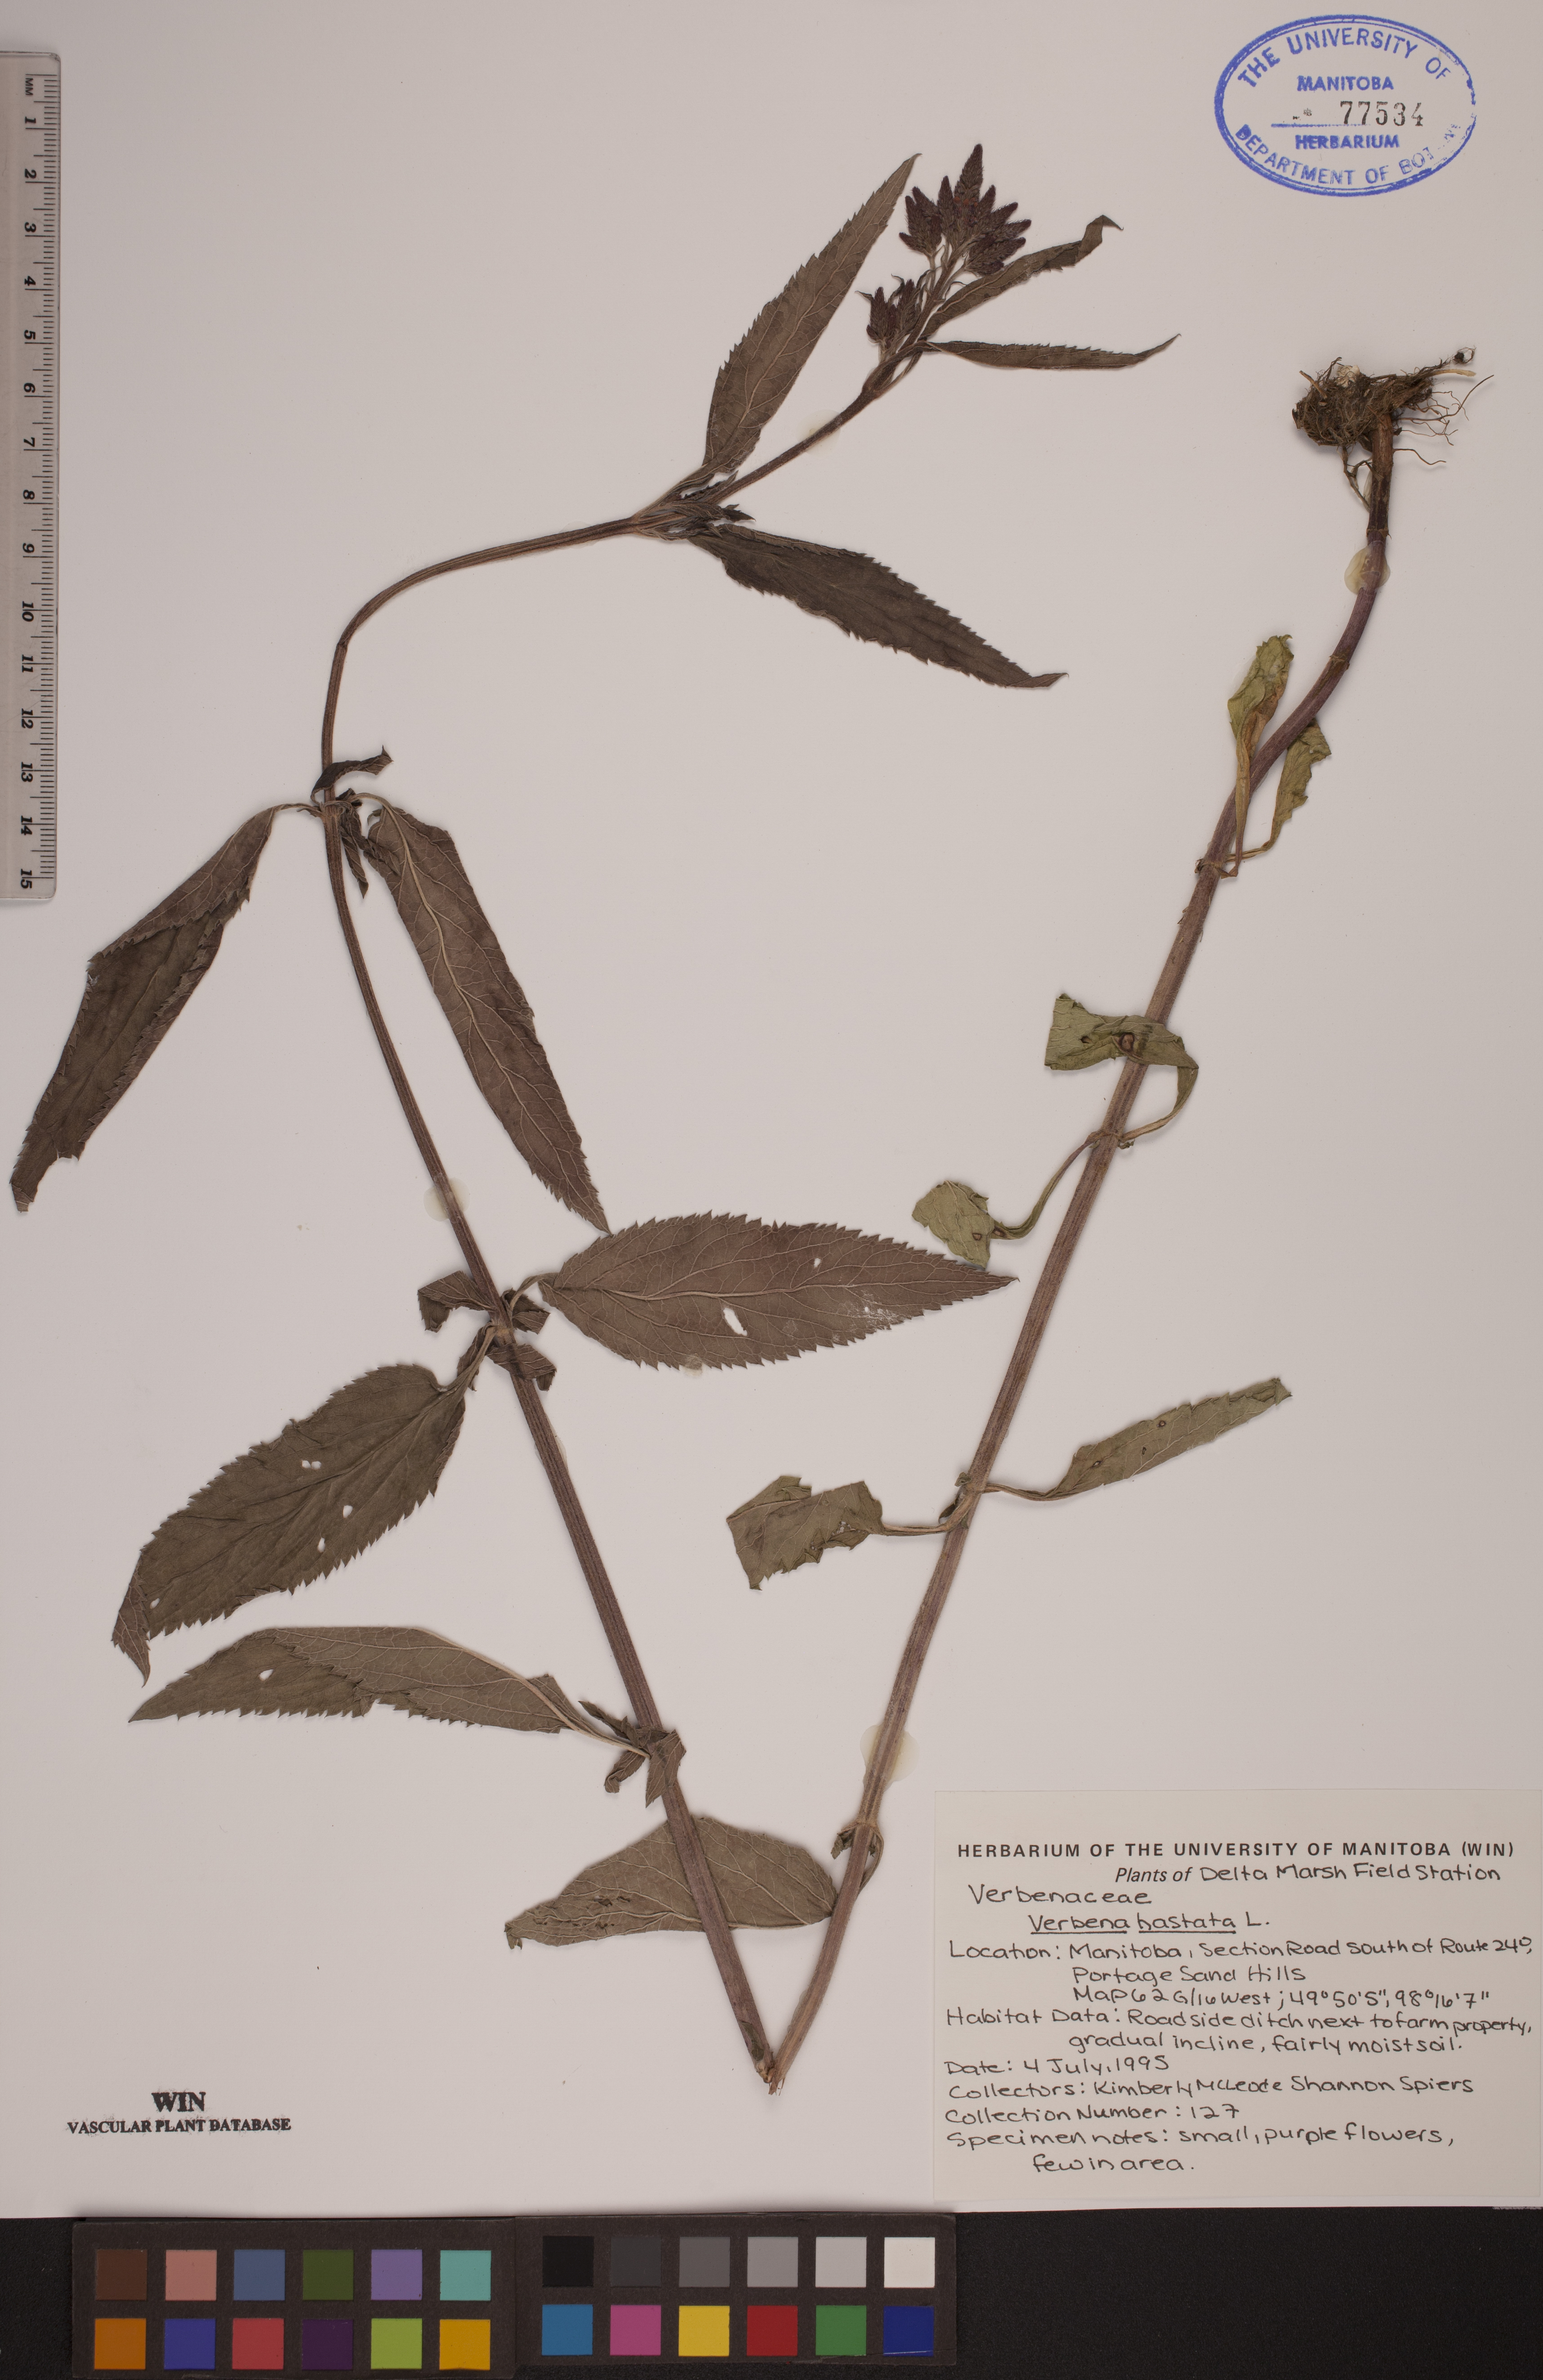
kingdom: Plantae
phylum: Tracheophyta
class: Magnoliopsida
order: Lamiales
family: Verbenaceae
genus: Verbena
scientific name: Verbena hastata
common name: American blue vervain
